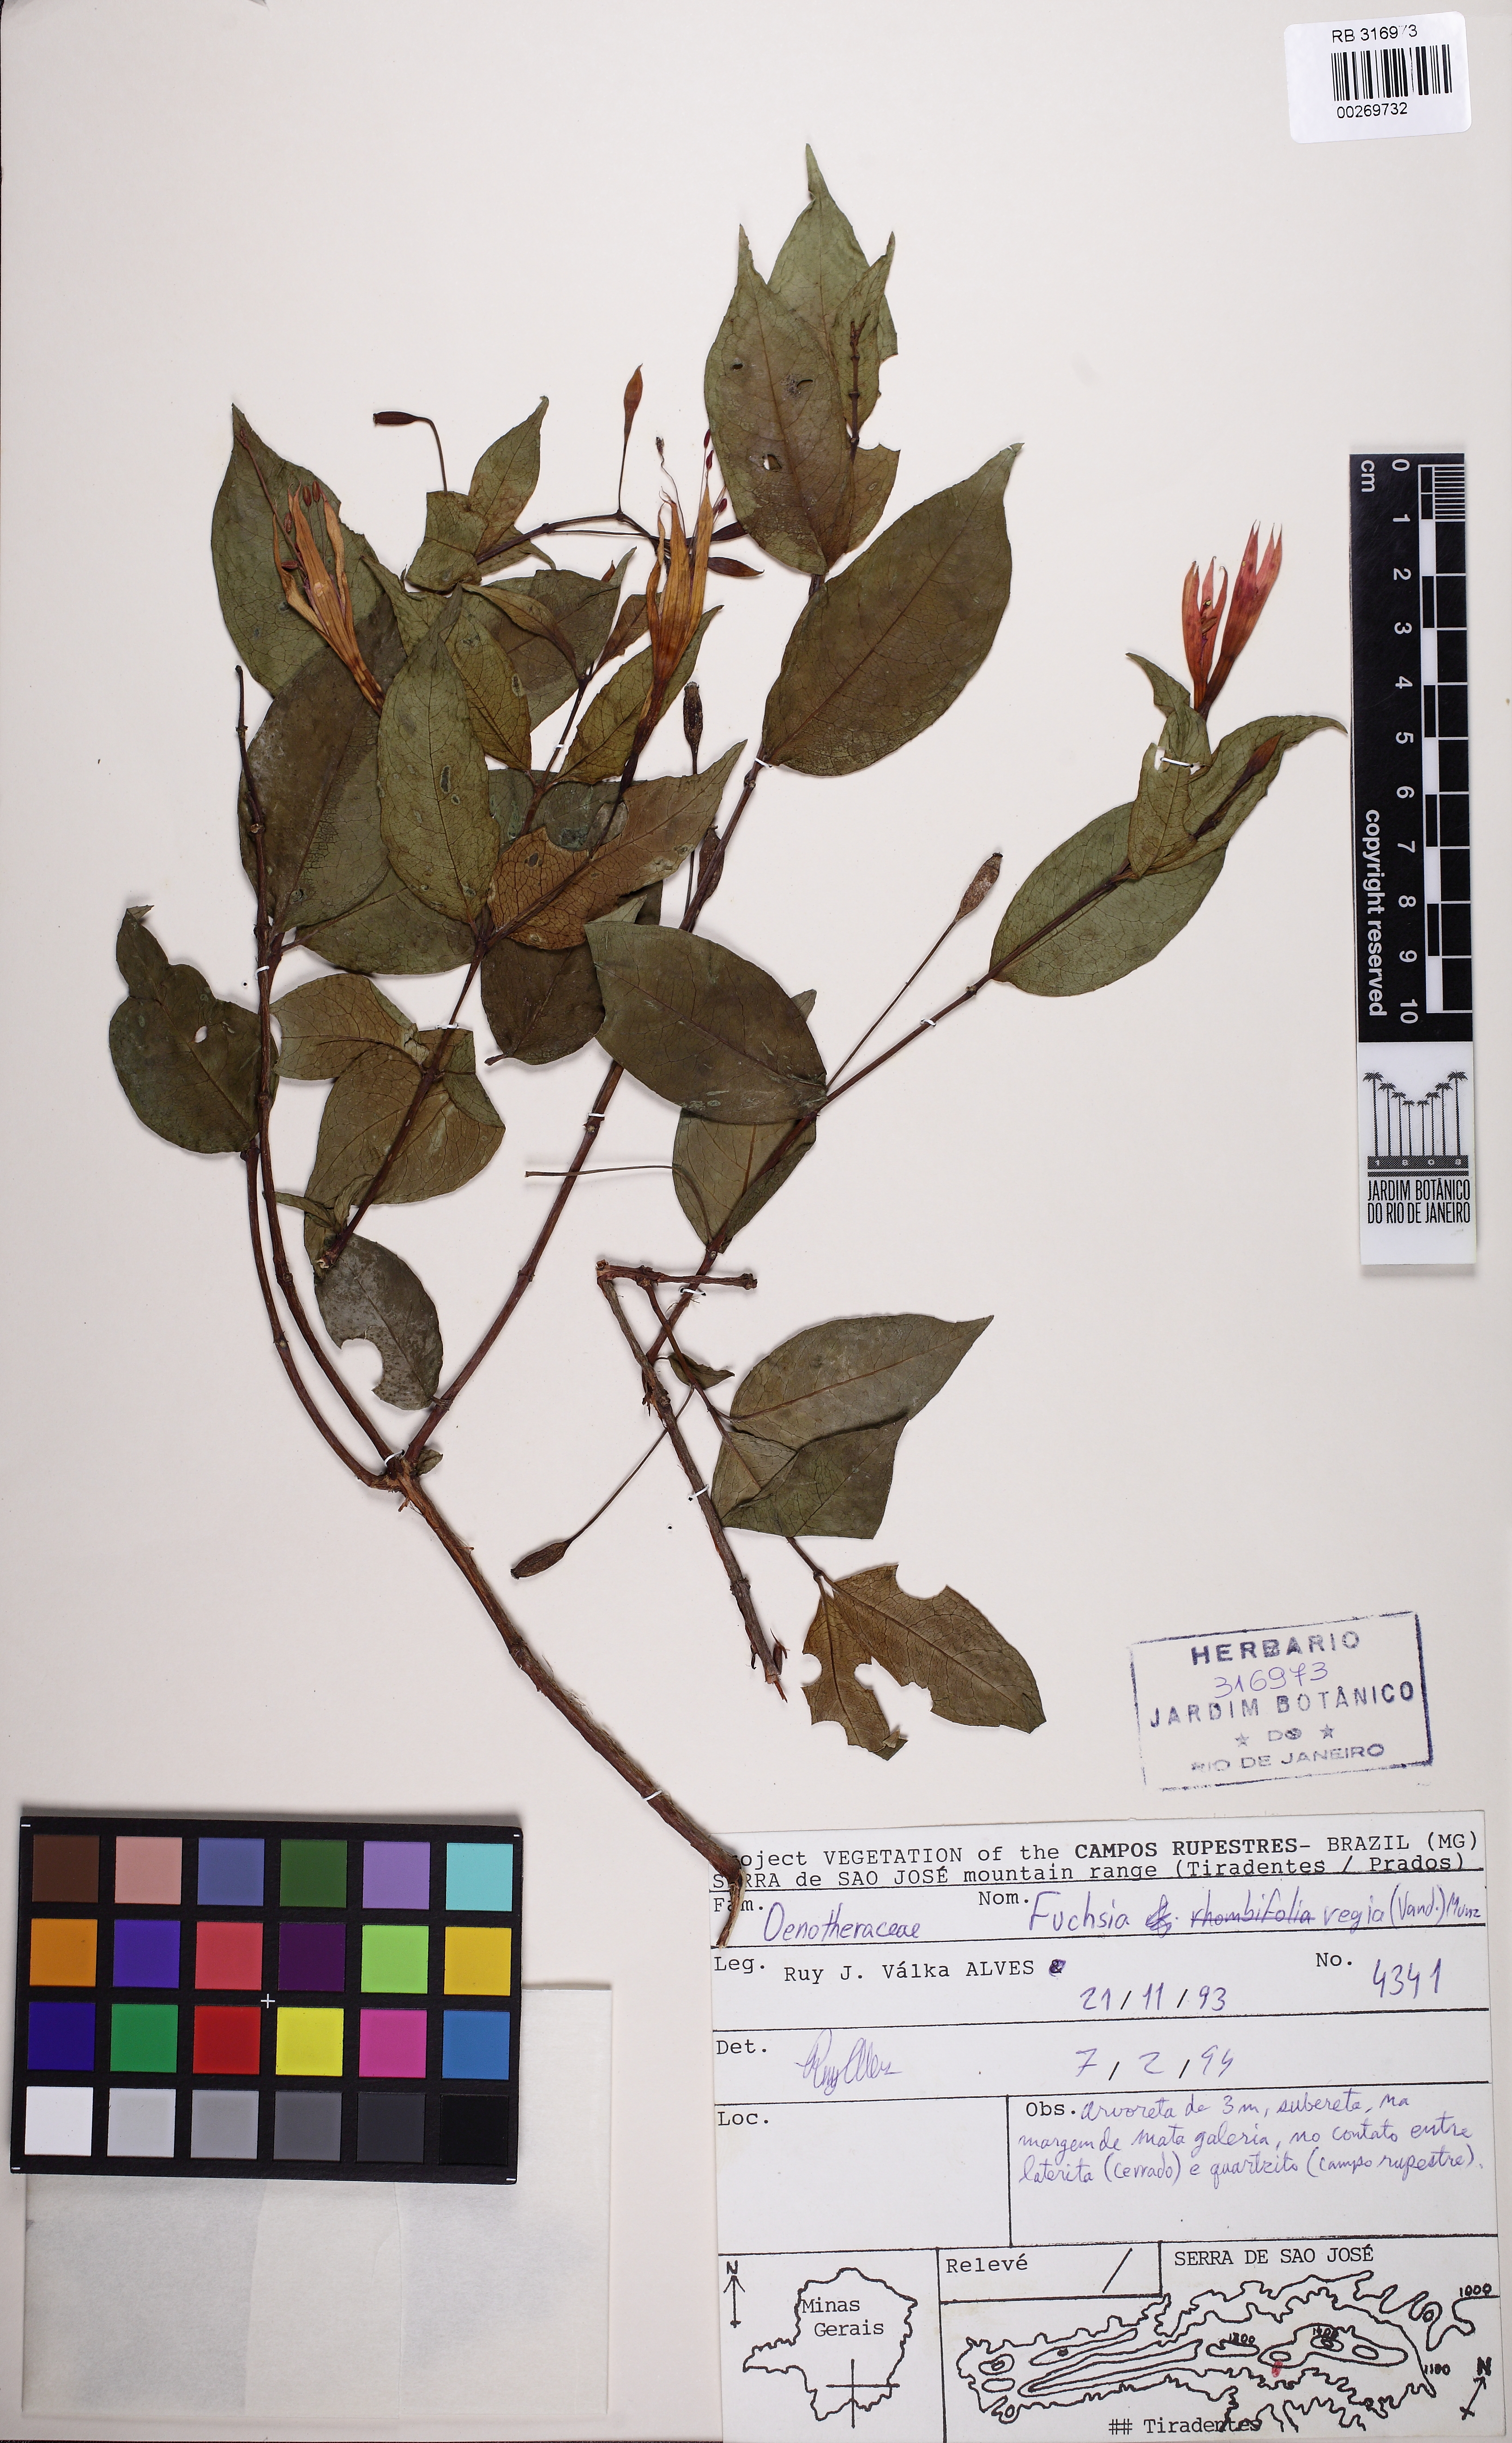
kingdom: Plantae
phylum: Tracheophyta
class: Magnoliopsida
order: Myrtales
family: Onagraceae
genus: Fuchsia
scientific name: Fuchsia regia
